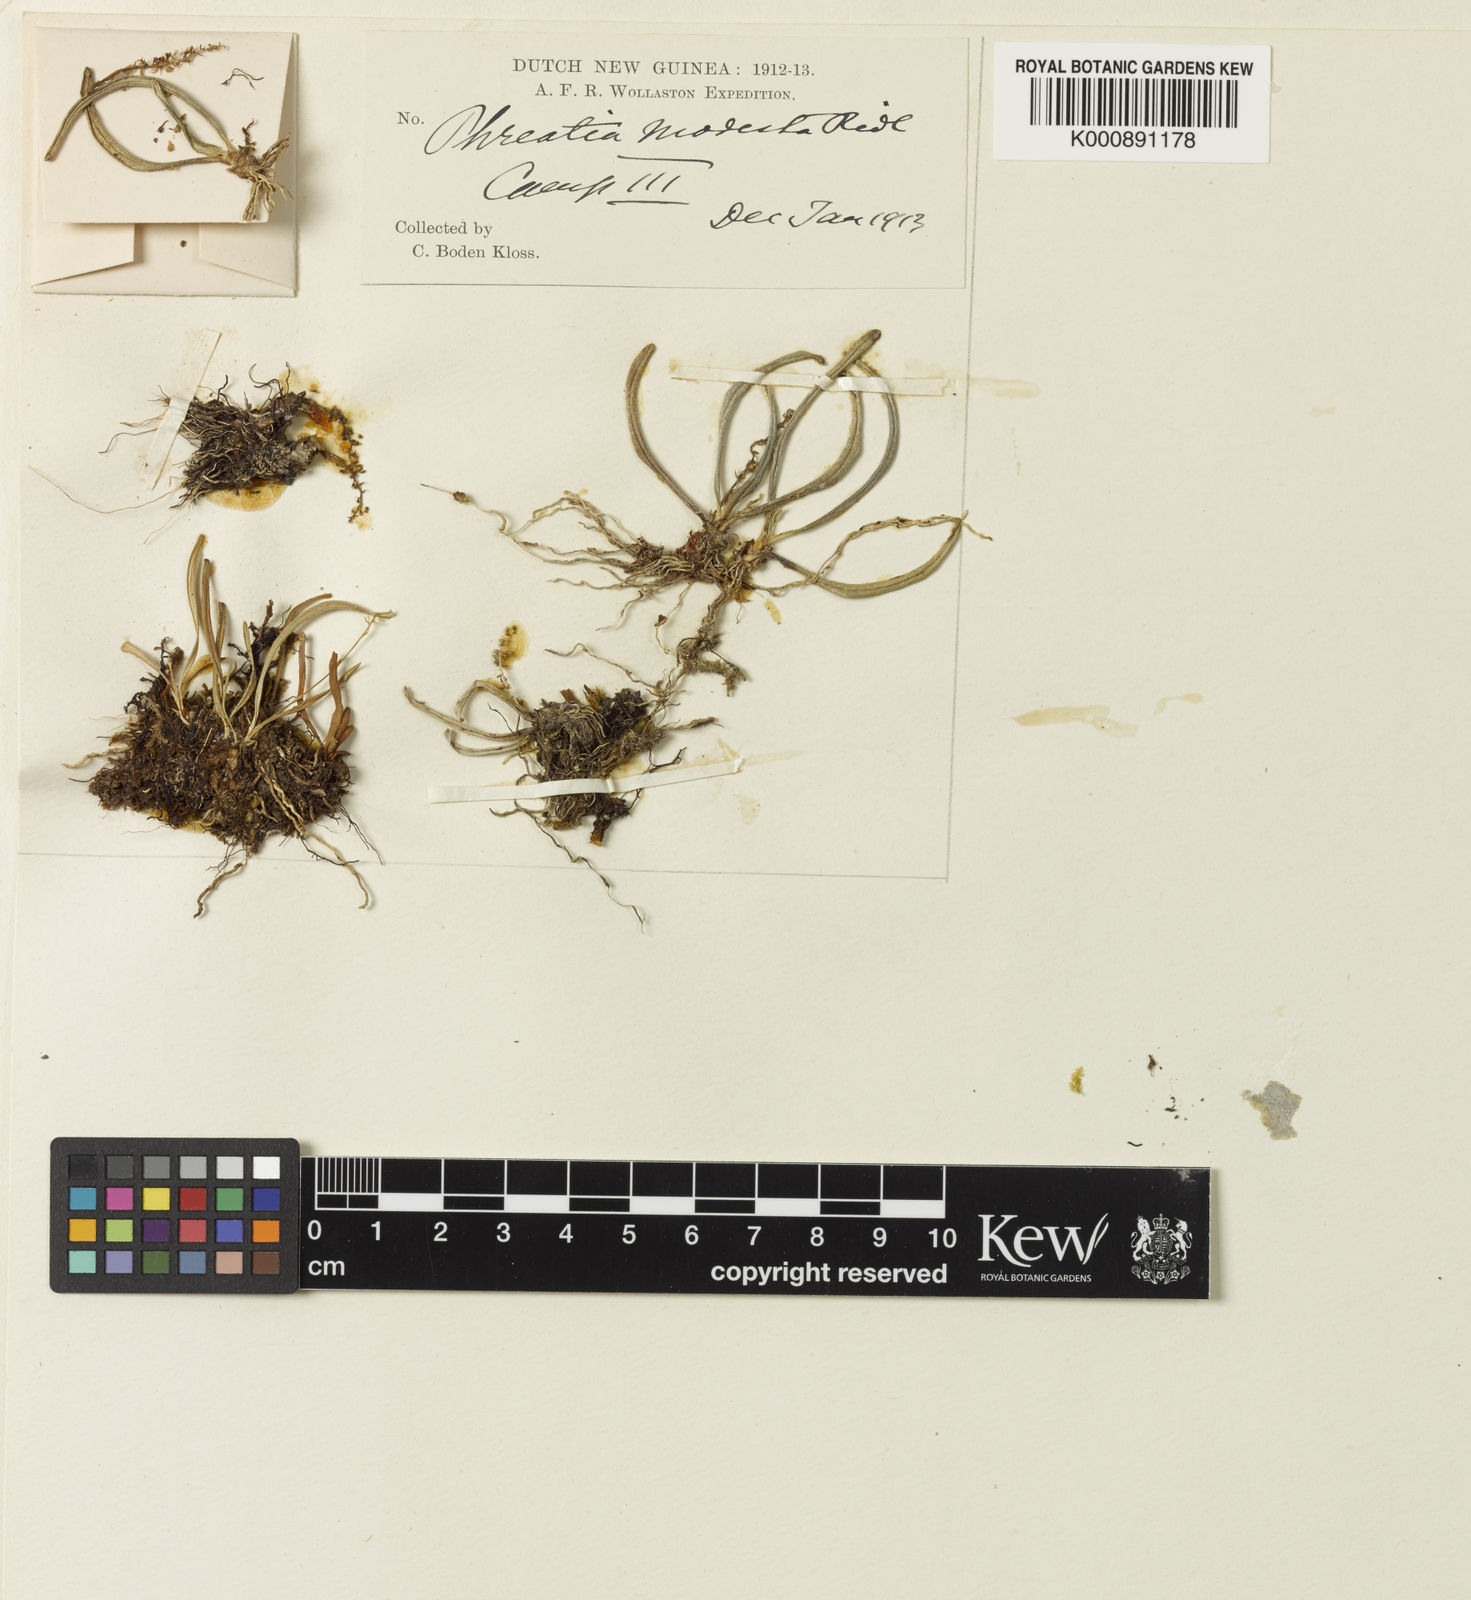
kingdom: Plantae
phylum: Tracheophyta
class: Liliopsida
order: Asparagales
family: Orchidaceae
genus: Phreatia
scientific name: Phreatia modesta
